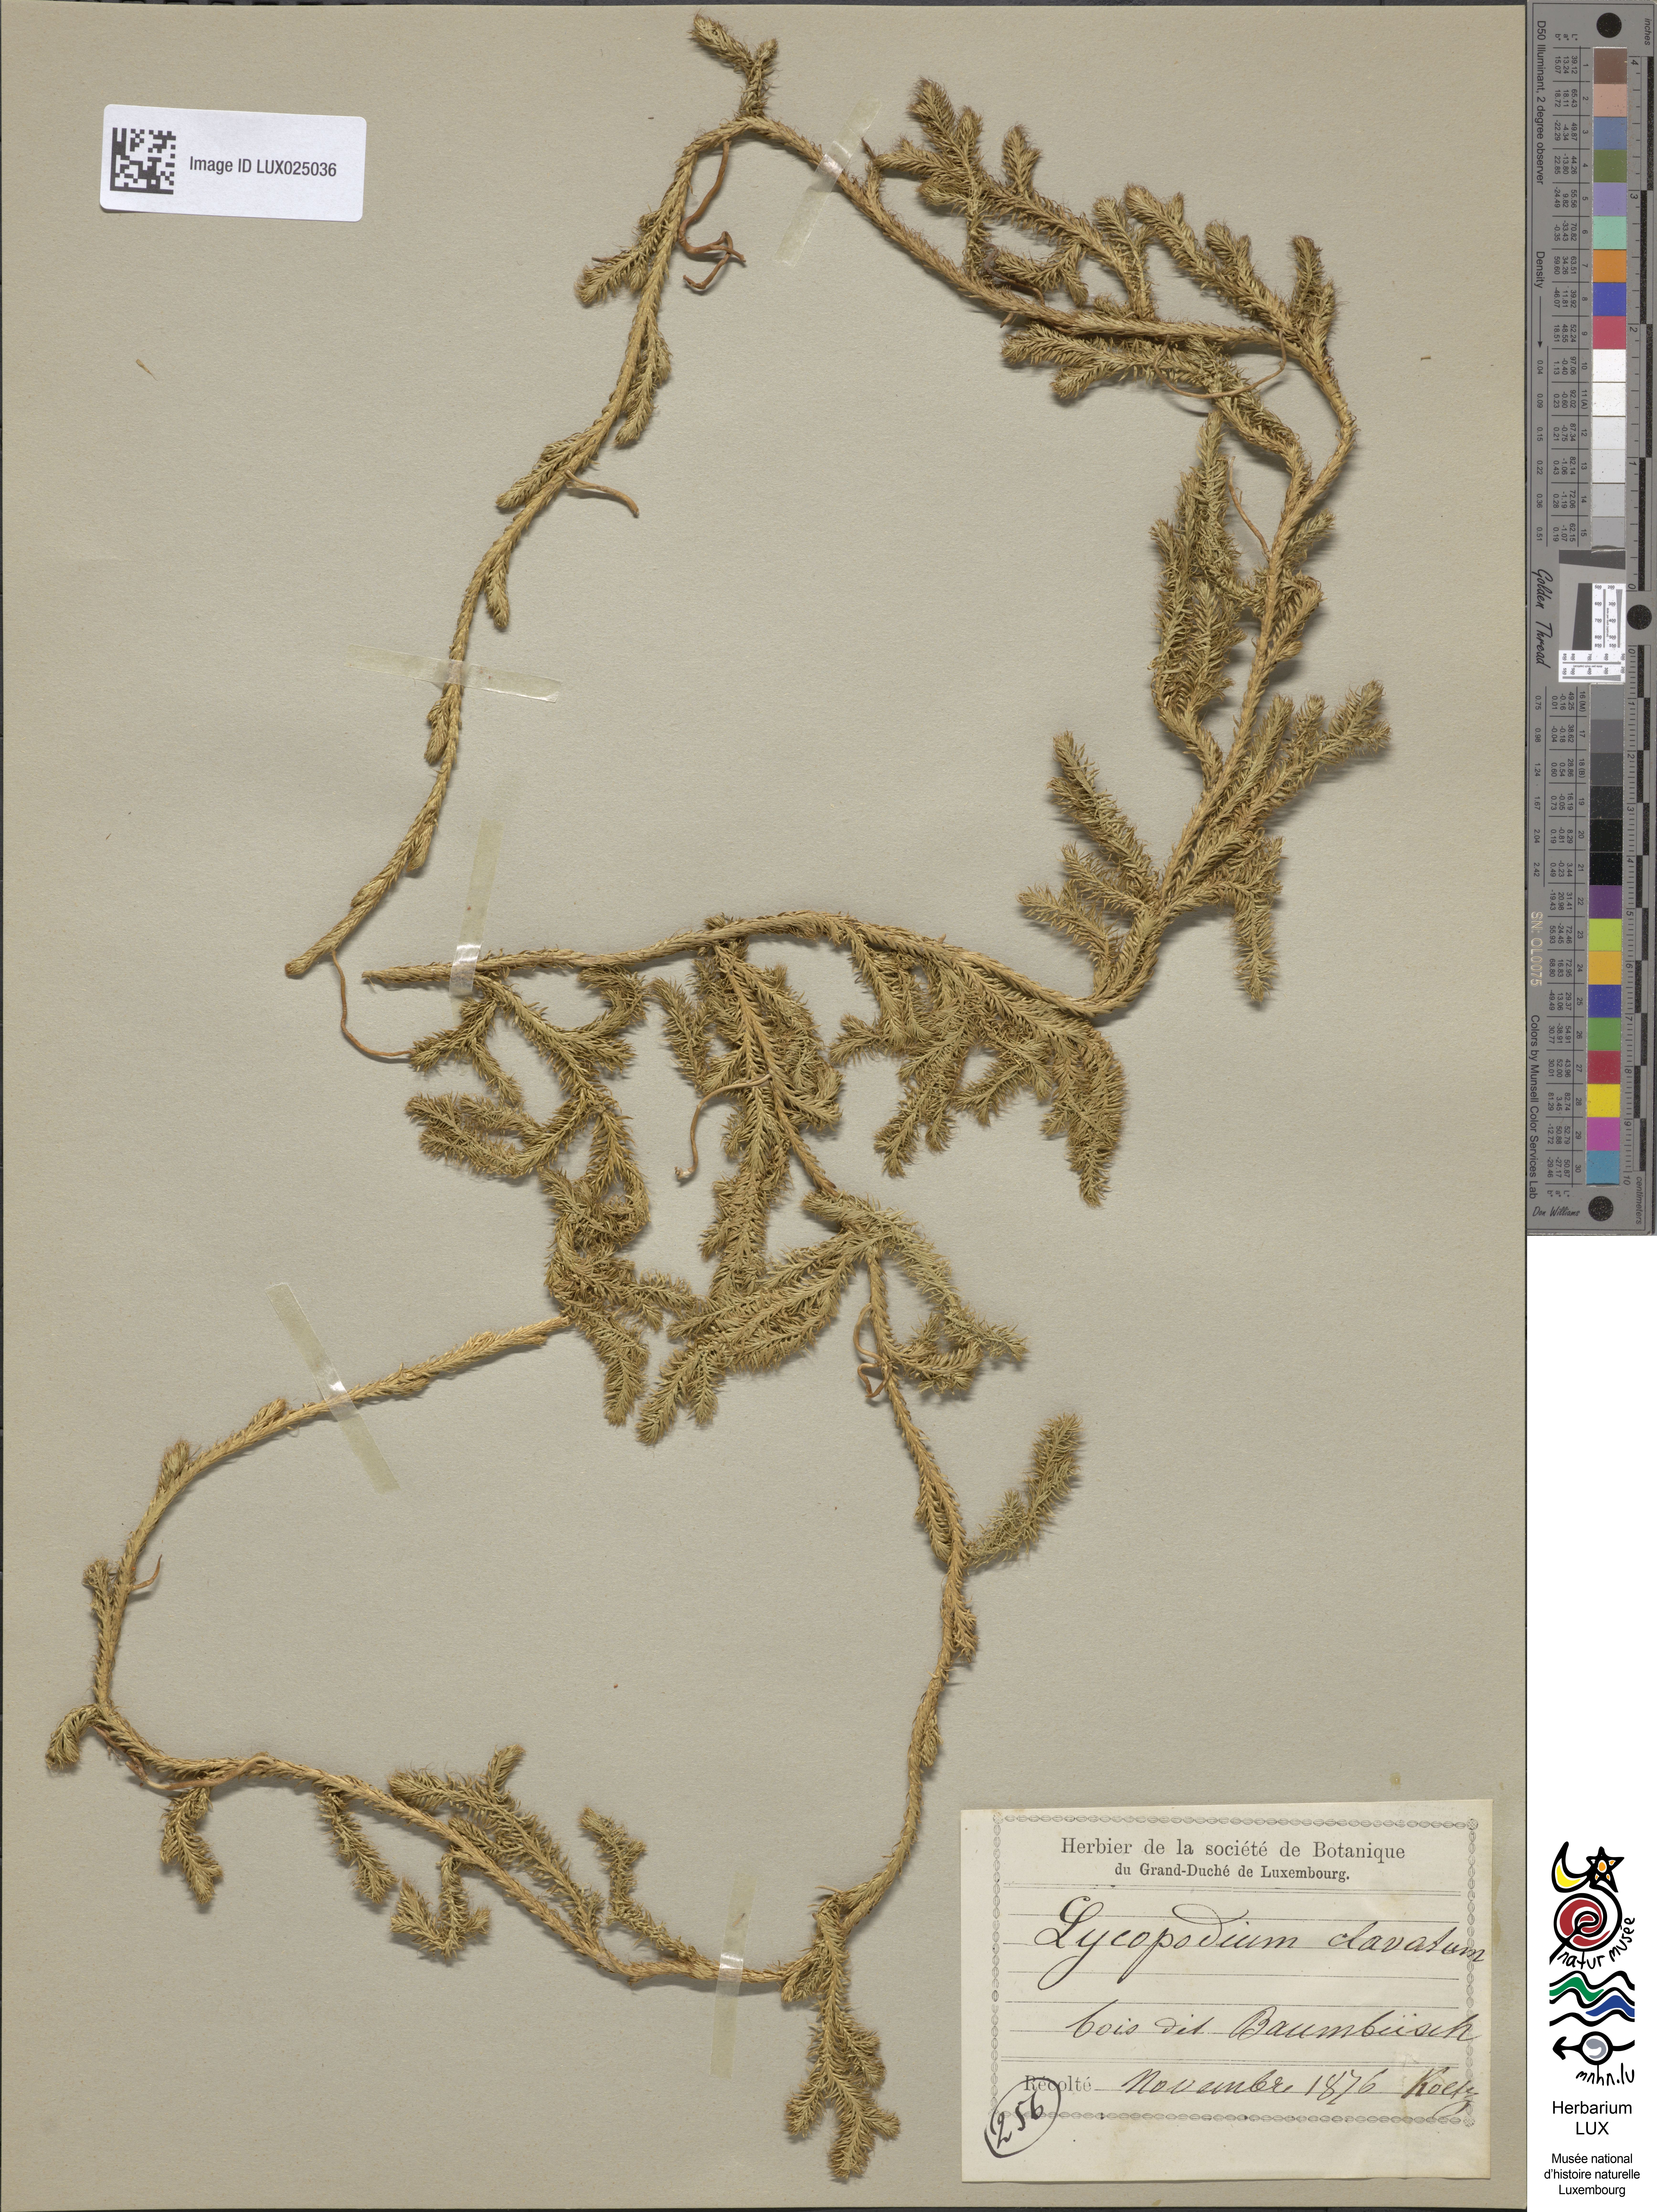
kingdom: Plantae
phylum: Tracheophyta
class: Lycopodiopsida
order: Lycopodiales
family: Lycopodiaceae
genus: Lycopodium
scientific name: Lycopodium clavatum
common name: Stag's-horn clubmoss
